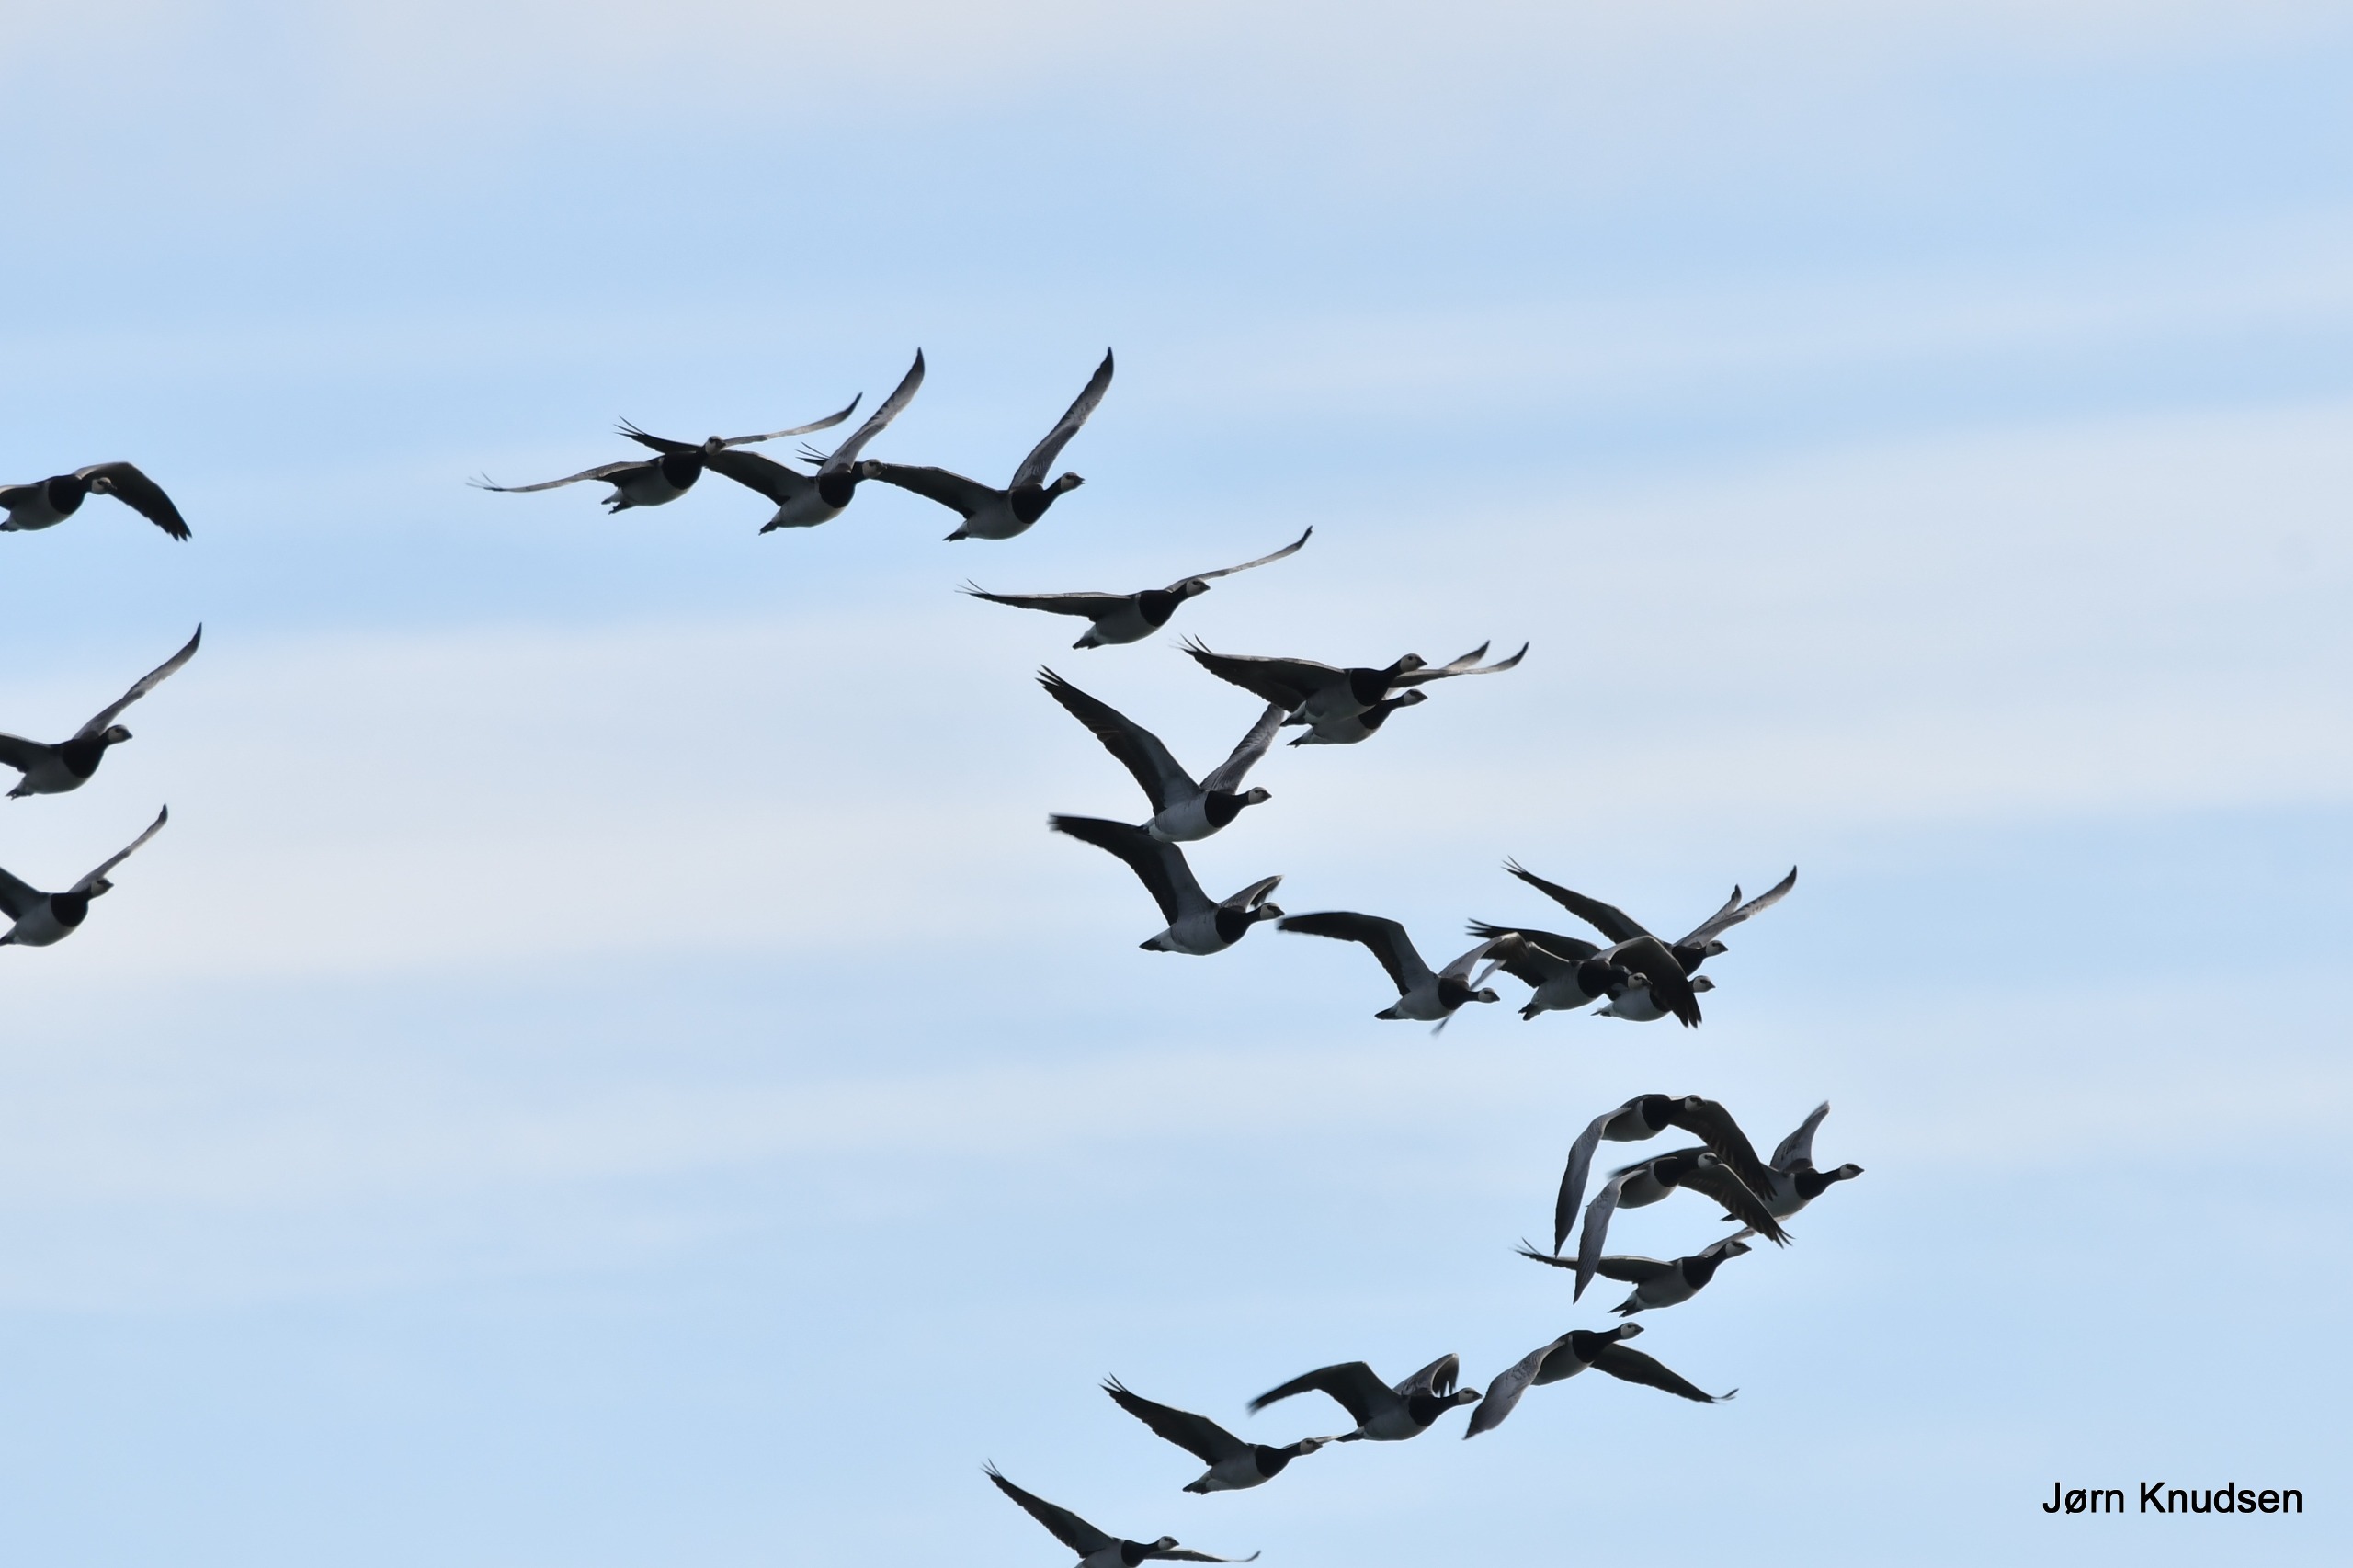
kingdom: Animalia
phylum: Chordata
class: Aves
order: Anseriformes
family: Anatidae
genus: Branta
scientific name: Branta leucopsis
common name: Bramgås
